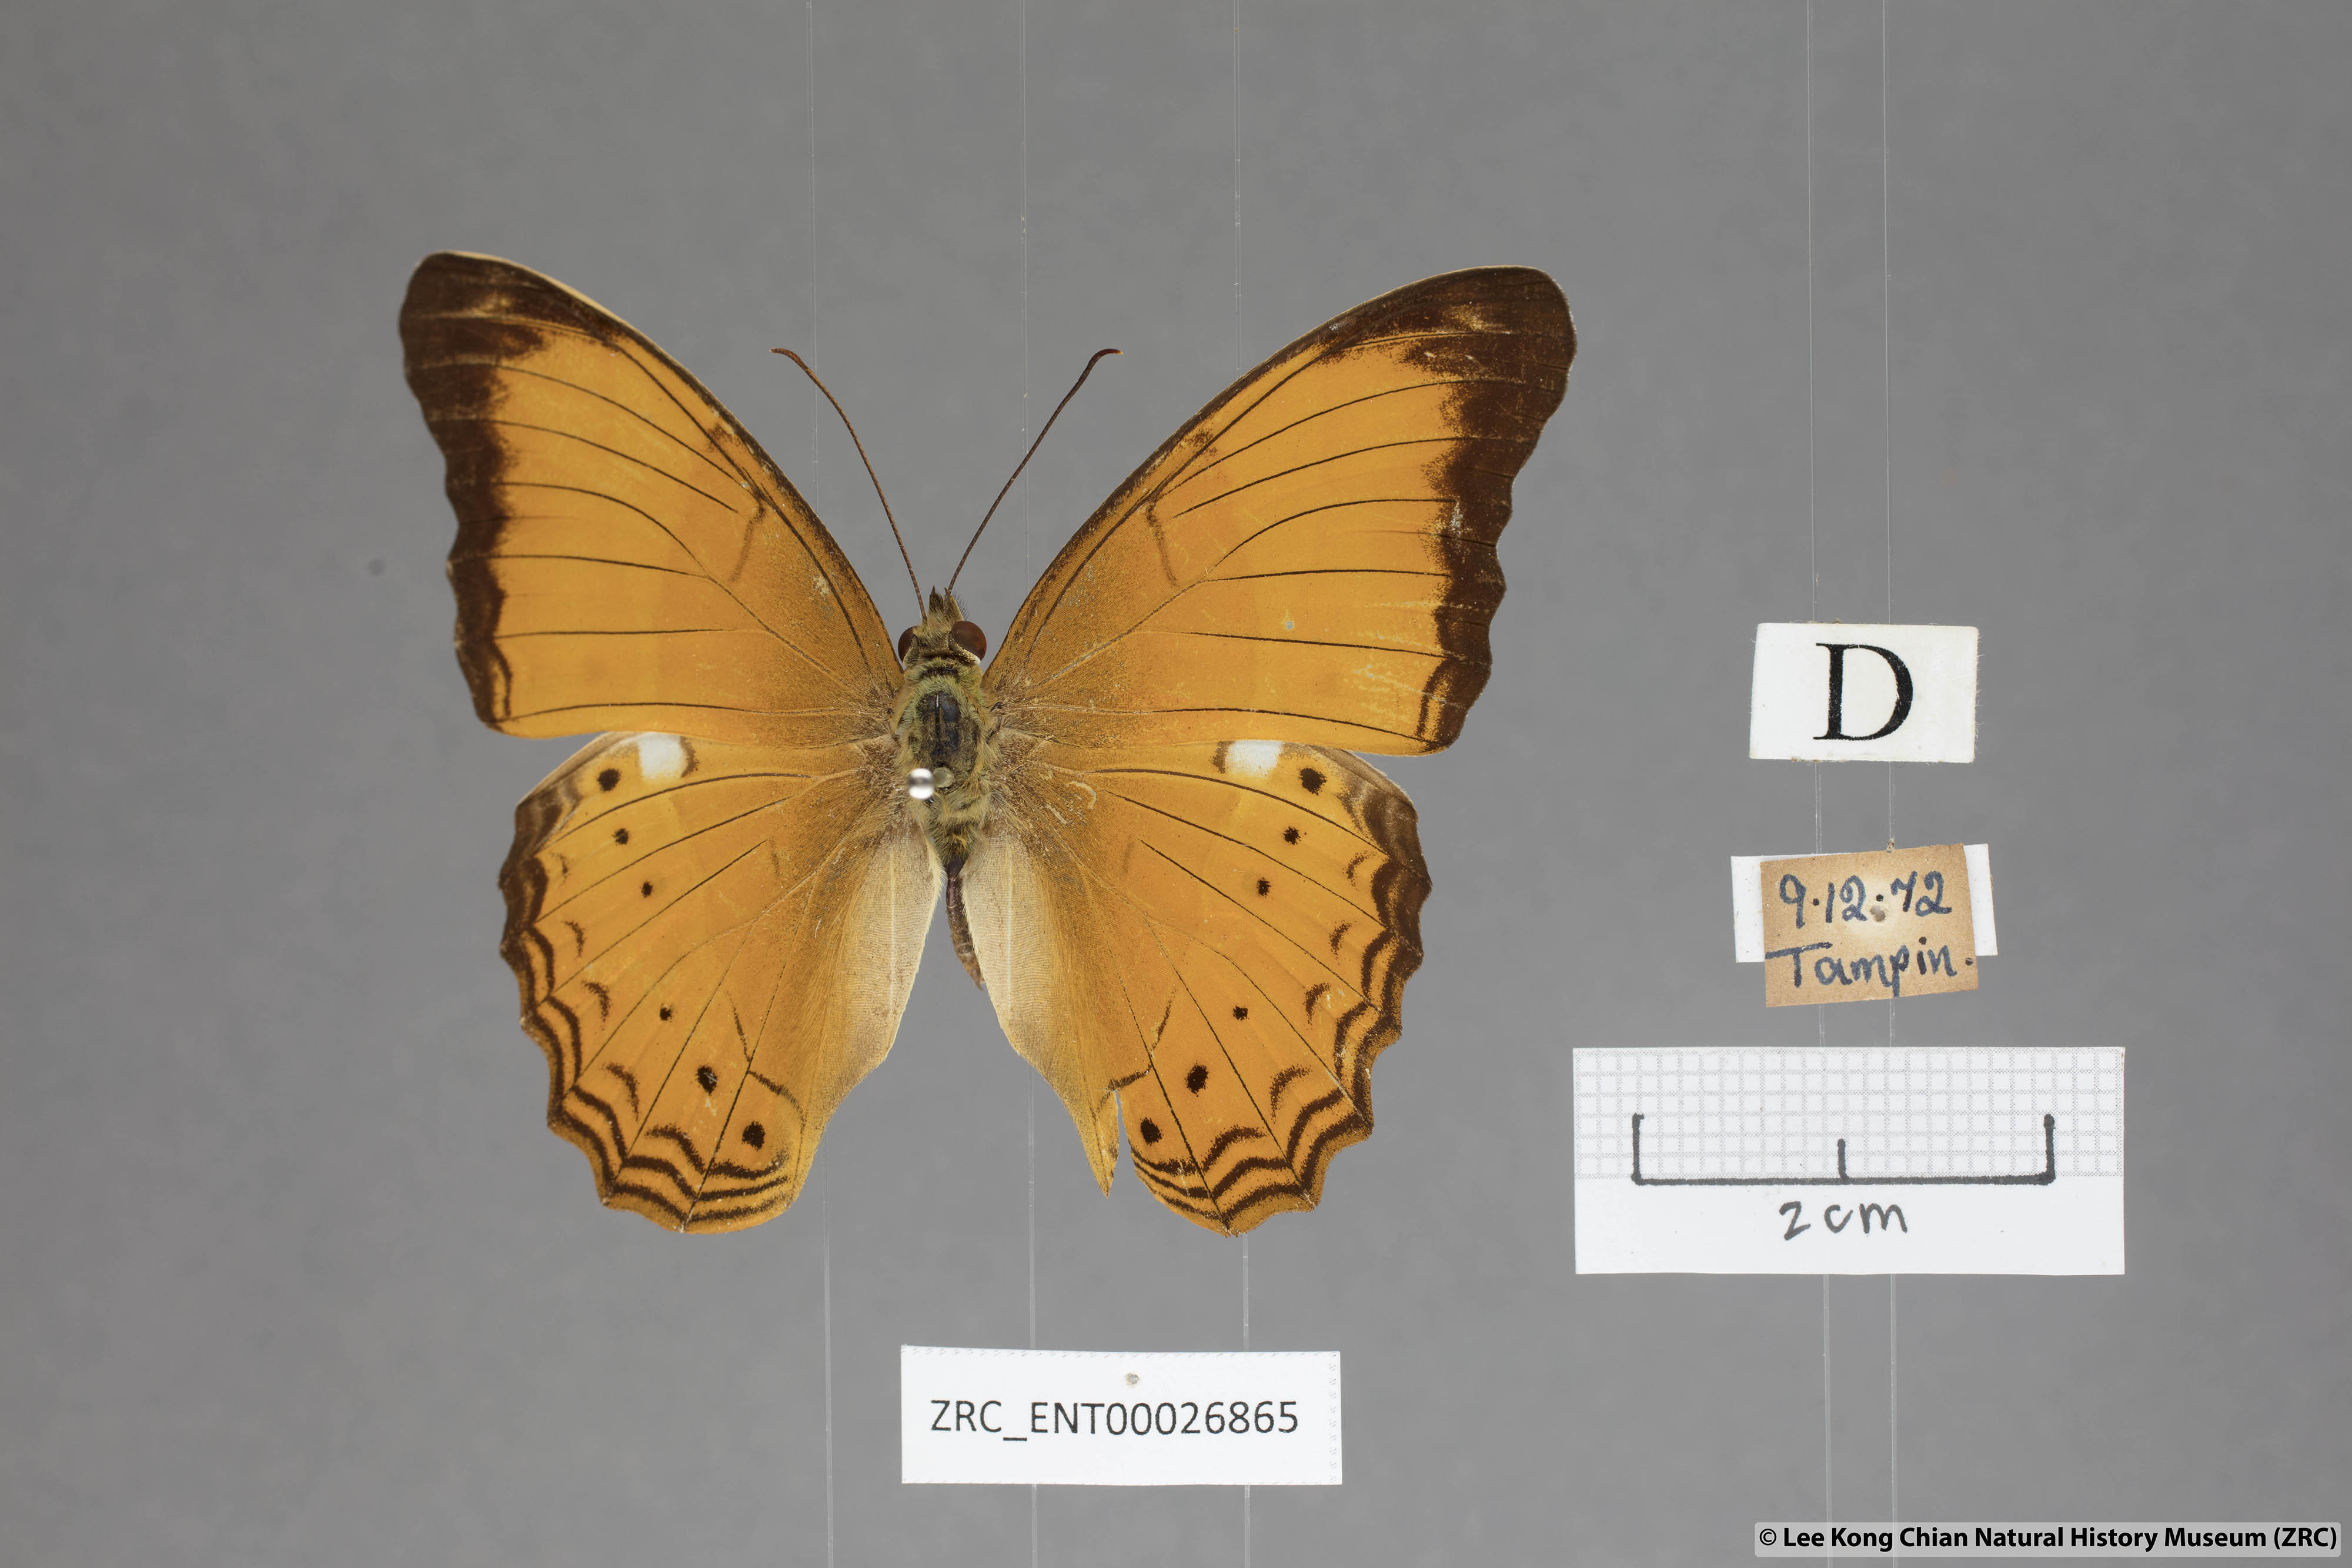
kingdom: Animalia
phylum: Arthropoda
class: Insecta
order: Lepidoptera
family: Nymphalidae
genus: Cirrochroa
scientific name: Cirrochroa emalea
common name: Malay yeoman
